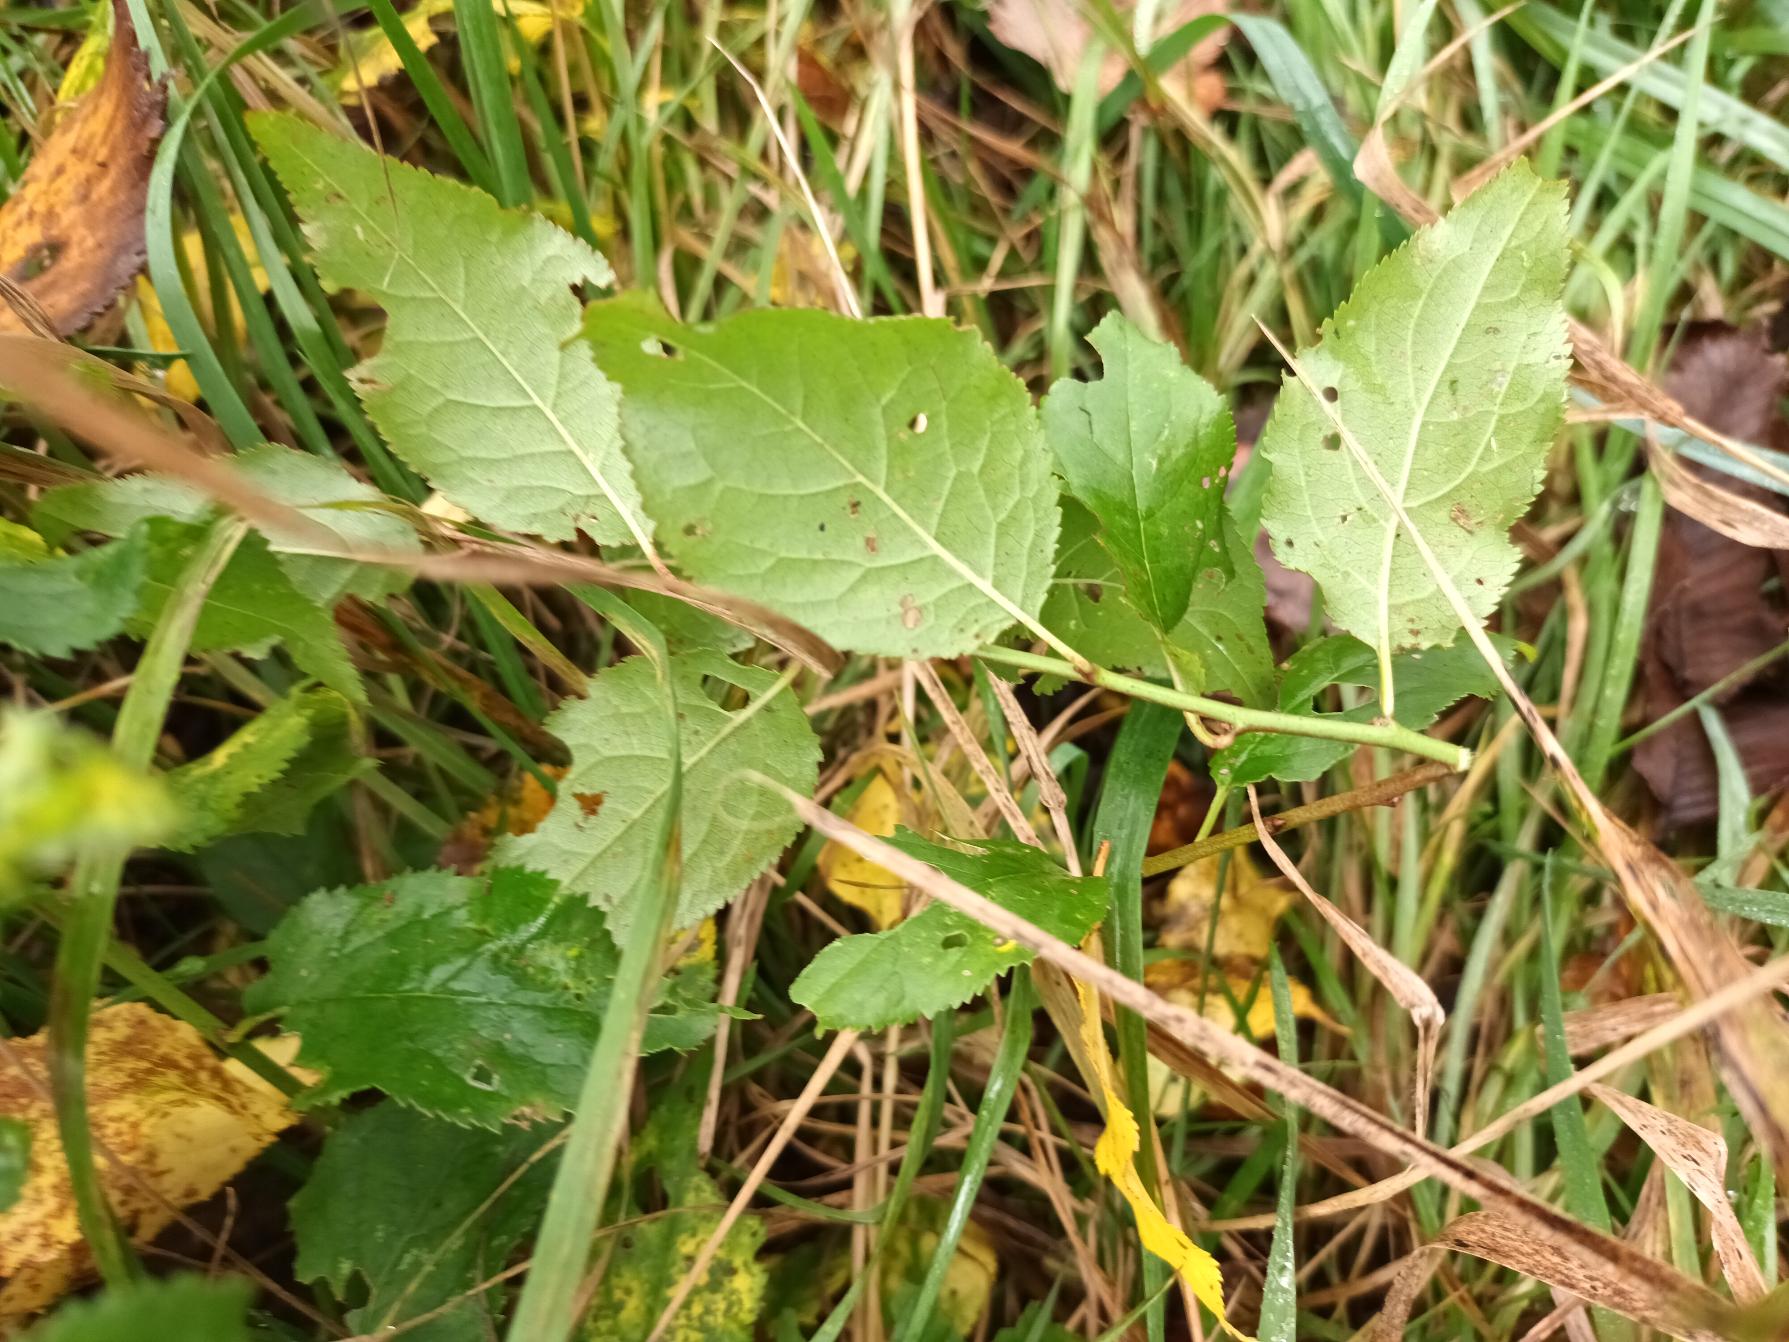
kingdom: Plantae
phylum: Tracheophyta
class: Magnoliopsida
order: Rosales
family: Rosaceae
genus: Prunus
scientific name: Prunus cerasifera
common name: Mirabel
